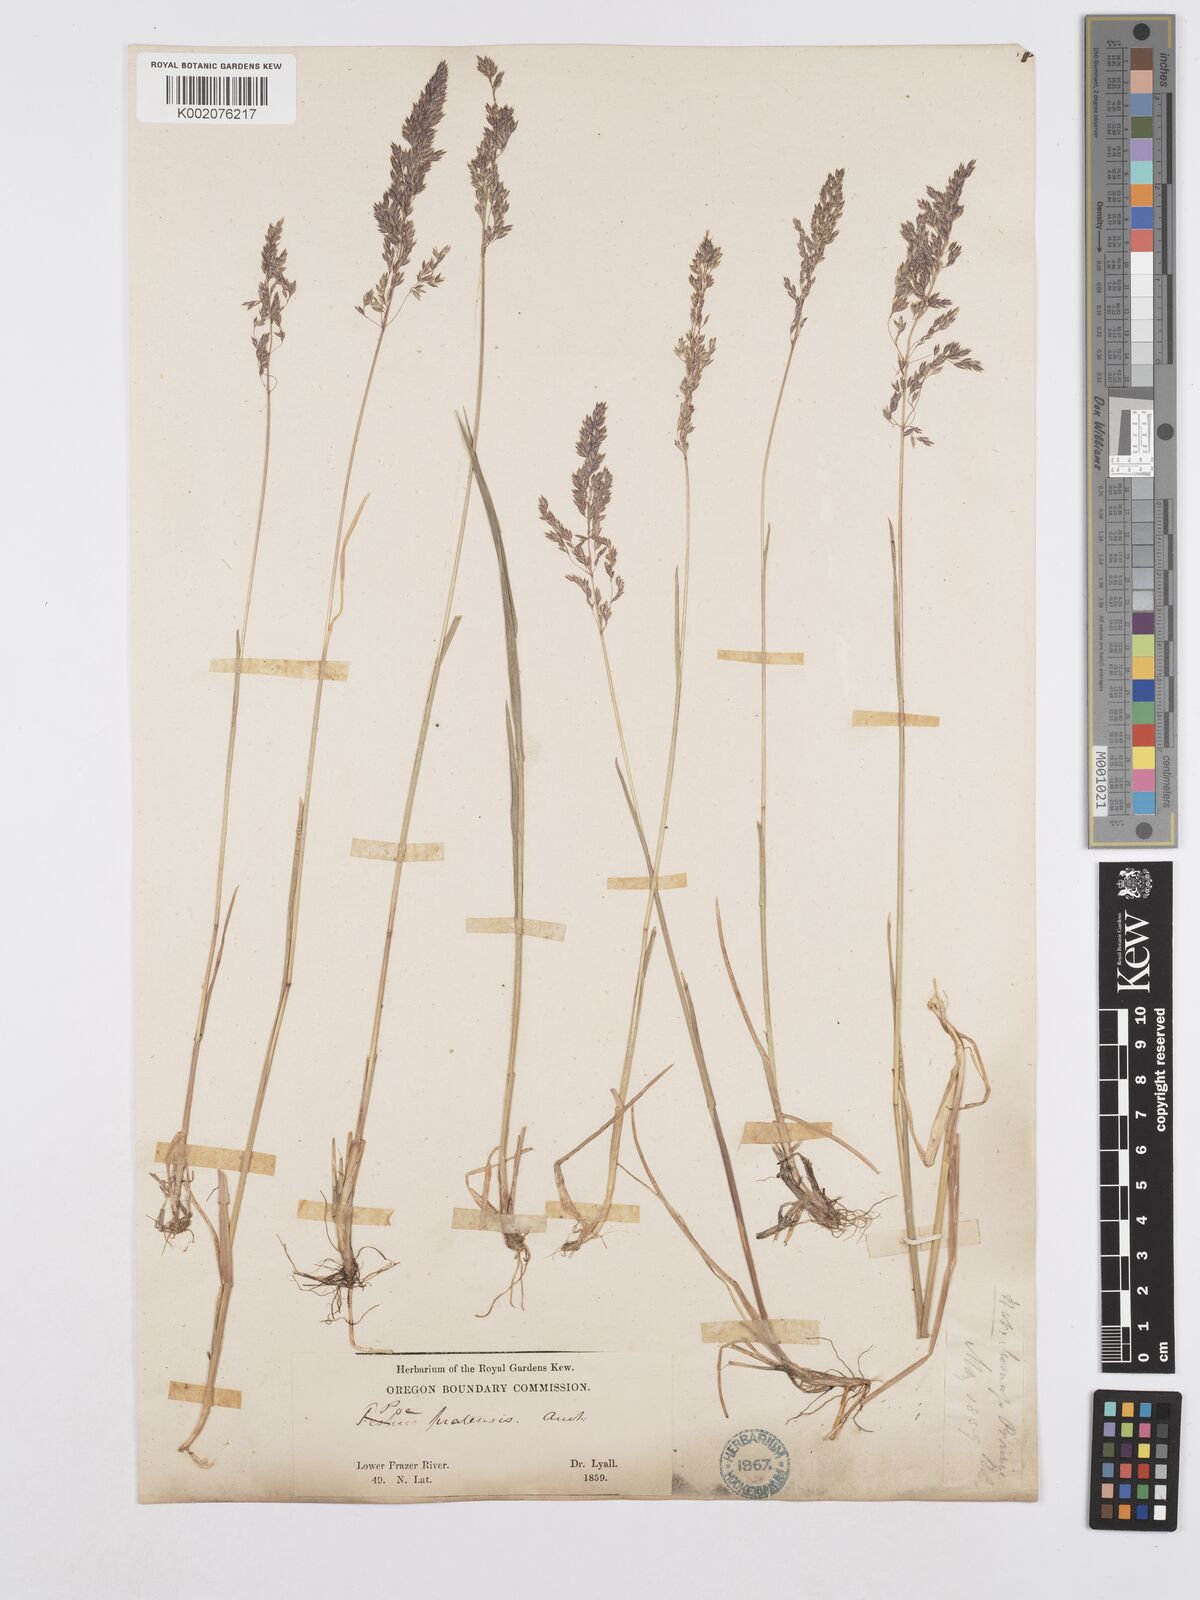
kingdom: Plantae
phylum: Tracheophyta
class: Liliopsida
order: Poales
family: Poaceae
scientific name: Poaceae
